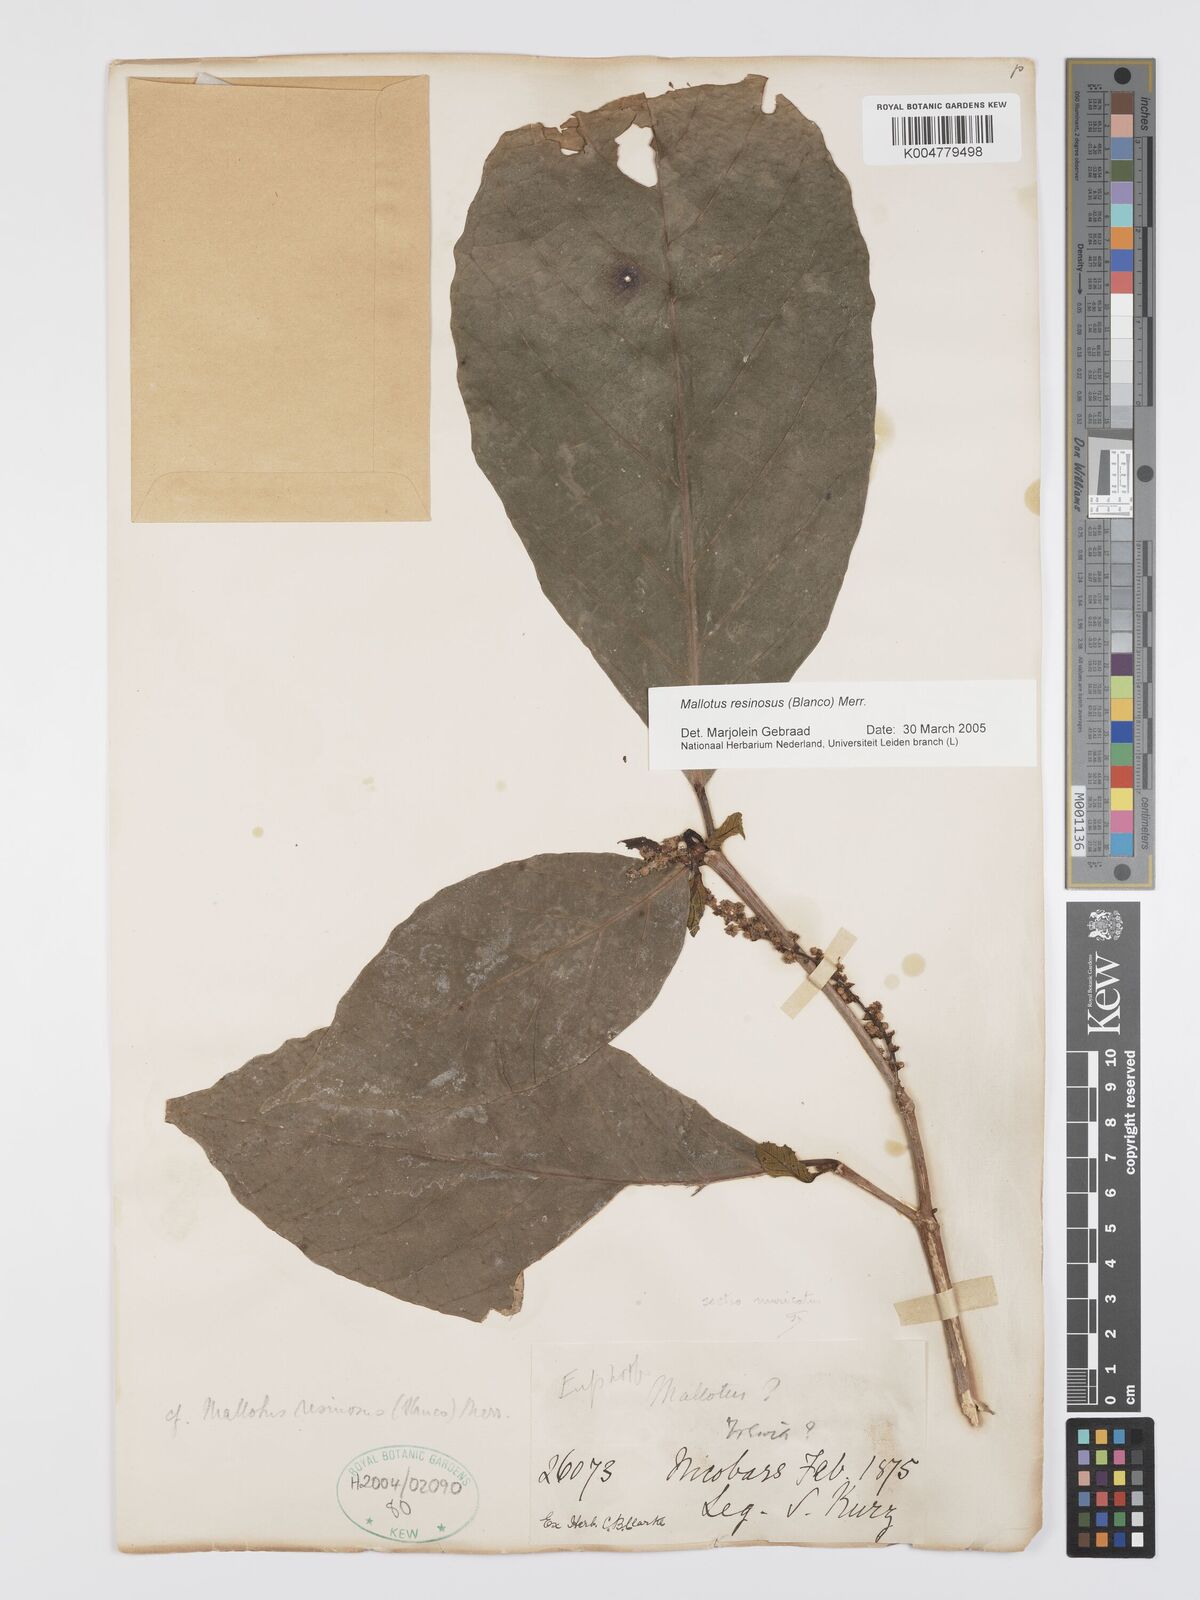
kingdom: Plantae
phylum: Tracheophyta
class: Magnoliopsida
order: Malpighiales
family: Euphorbiaceae
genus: Mallotus
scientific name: Mallotus resinosus
